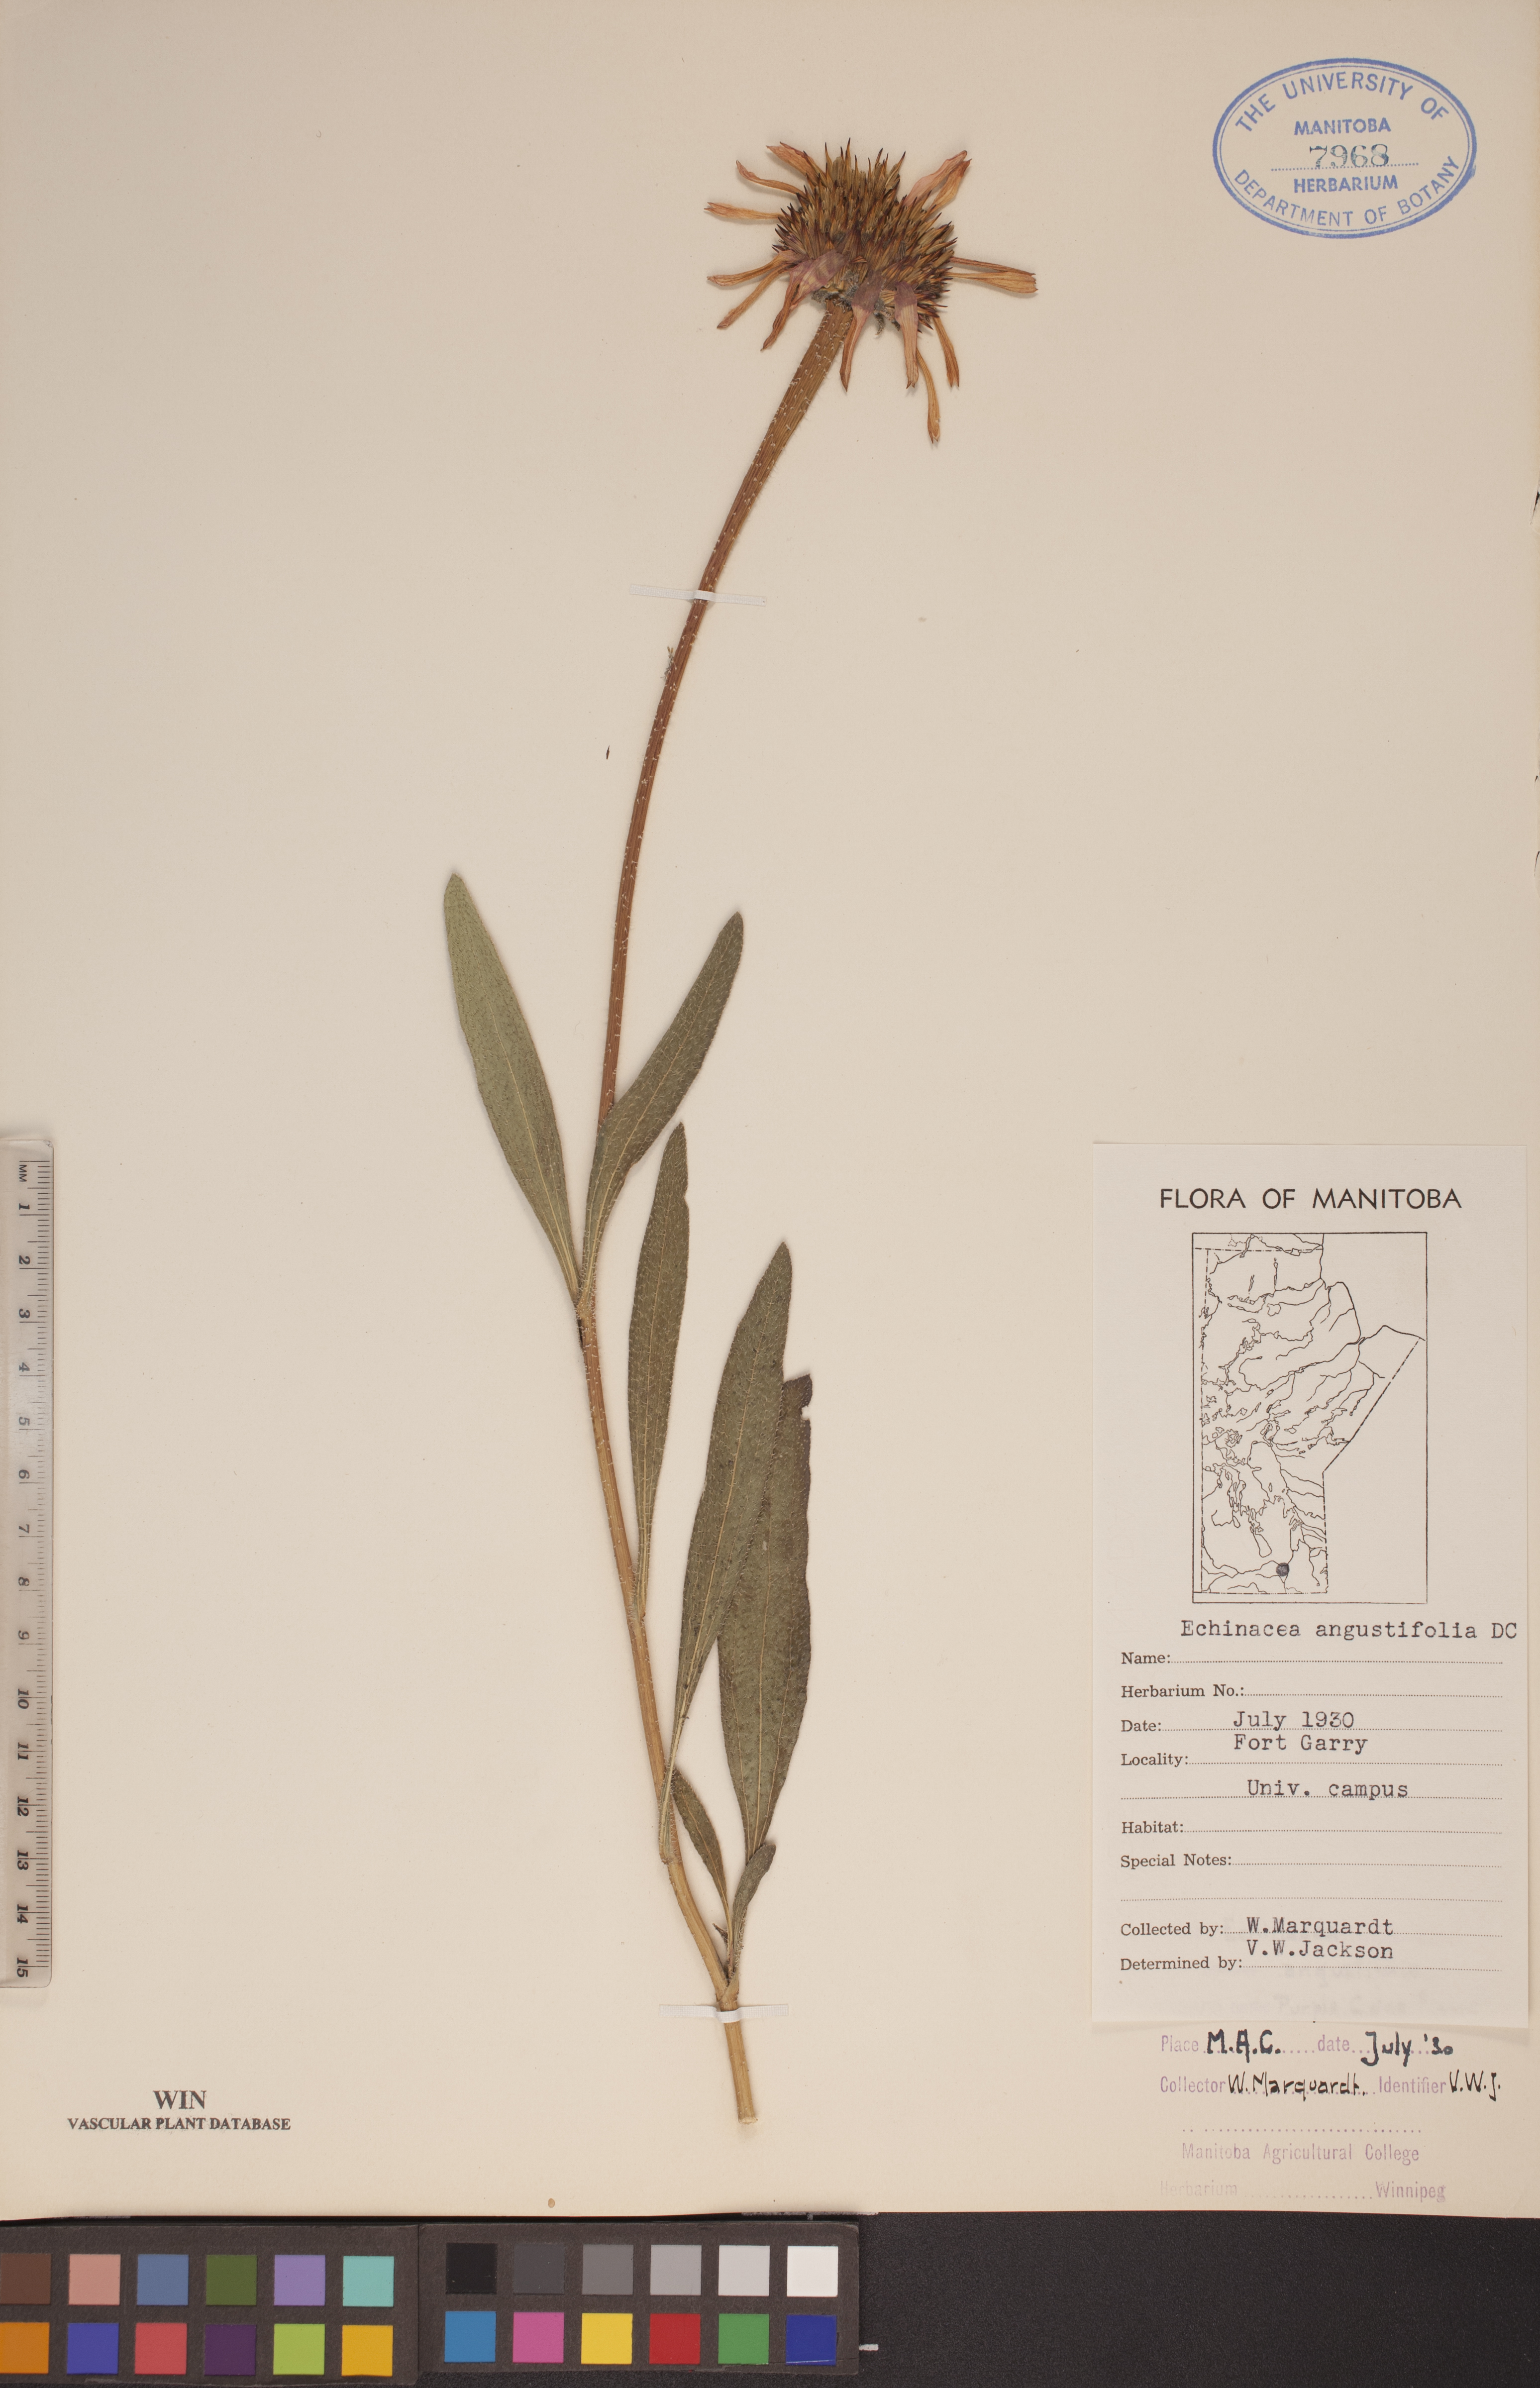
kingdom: Plantae
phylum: Tracheophyta
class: Magnoliopsida
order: Asterales
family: Asteraceae
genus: Echinacea
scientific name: Echinacea angustifolia
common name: Black-sampson echinacea
